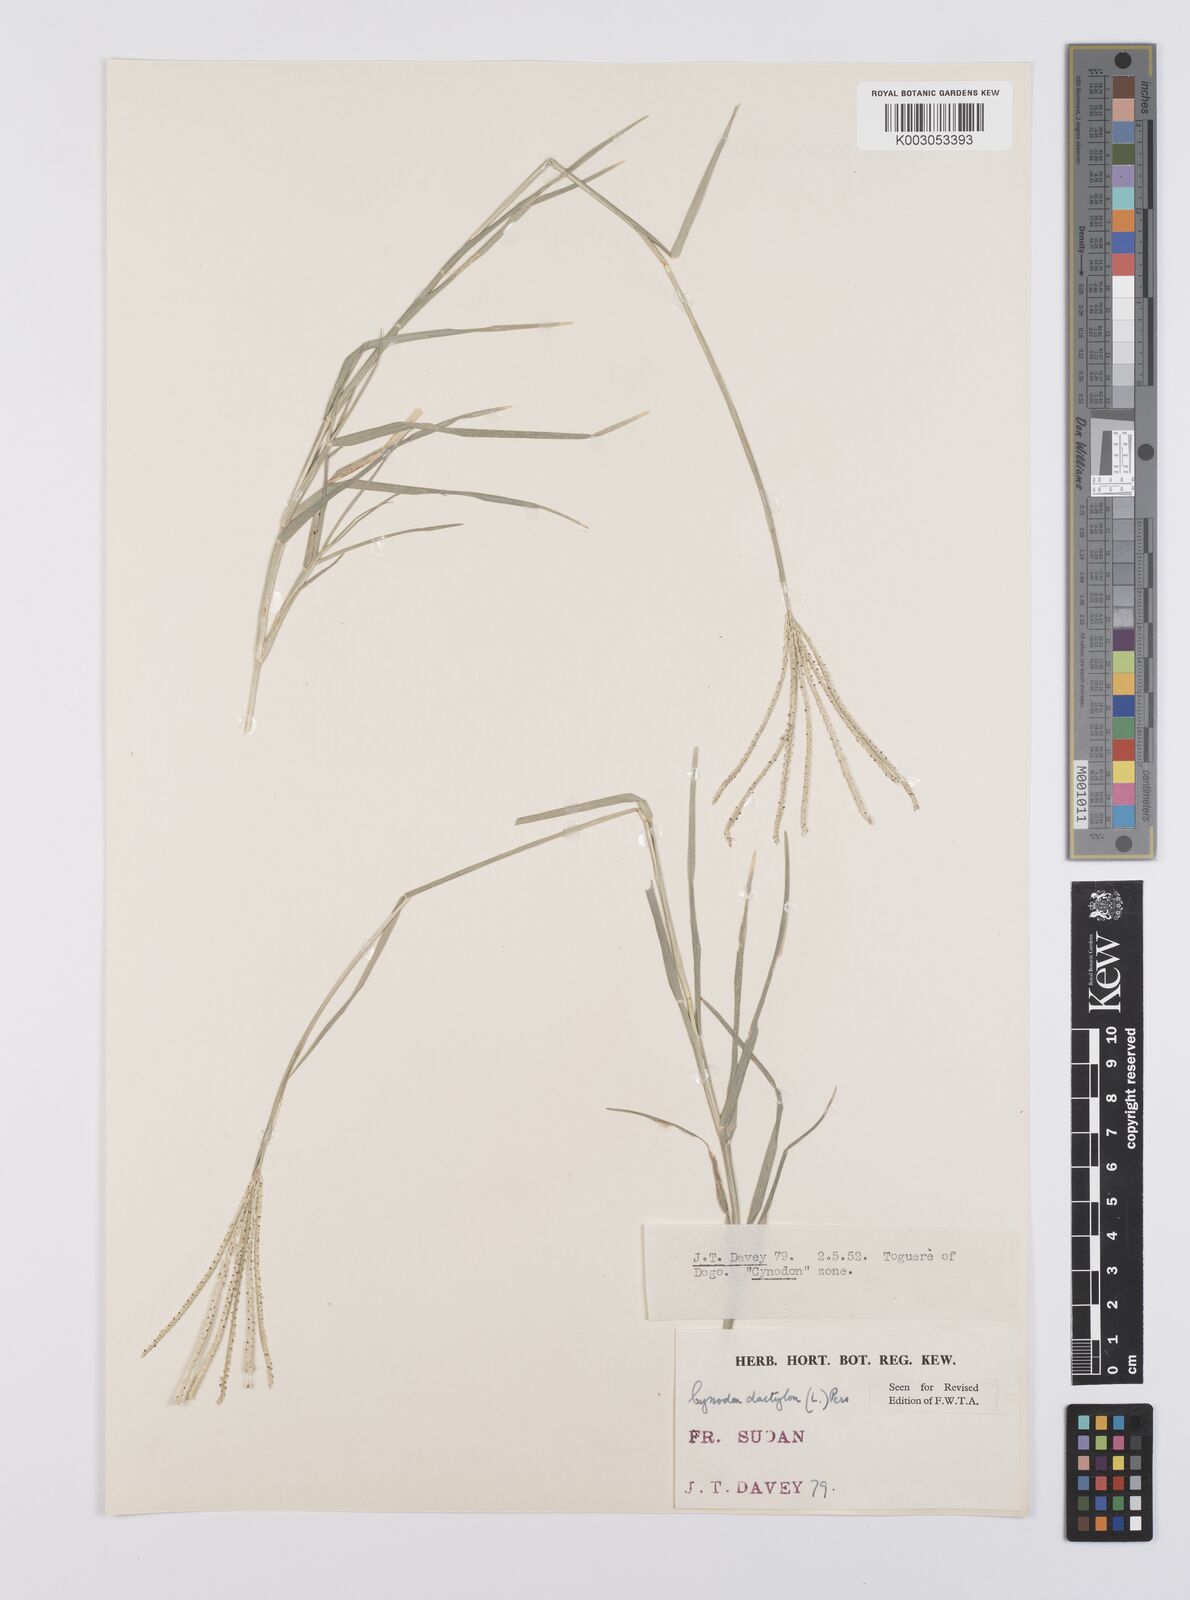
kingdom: Plantae
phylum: Tracheophyta
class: Liliopsida
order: Poales
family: Poaceae
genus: Cynodon
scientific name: Cynodon dactylon
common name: Bermuda grass
